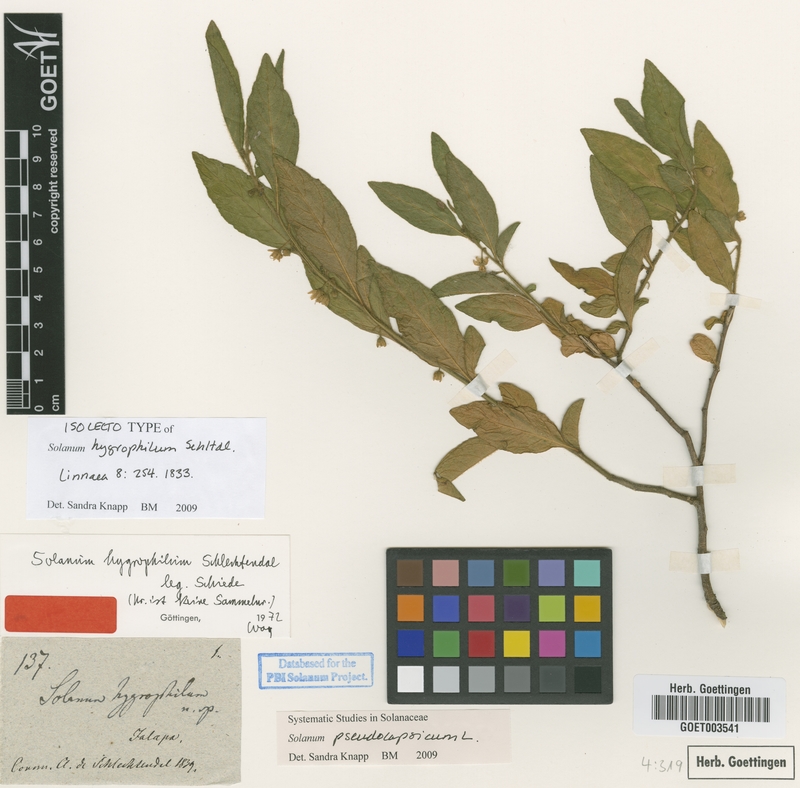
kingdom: Plantae
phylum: Tracheophyta
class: Magnoliopsida
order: Solanales
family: Solanaceae
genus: Solanum
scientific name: Solanum pseudocapsicum
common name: Jerusalem cherry
